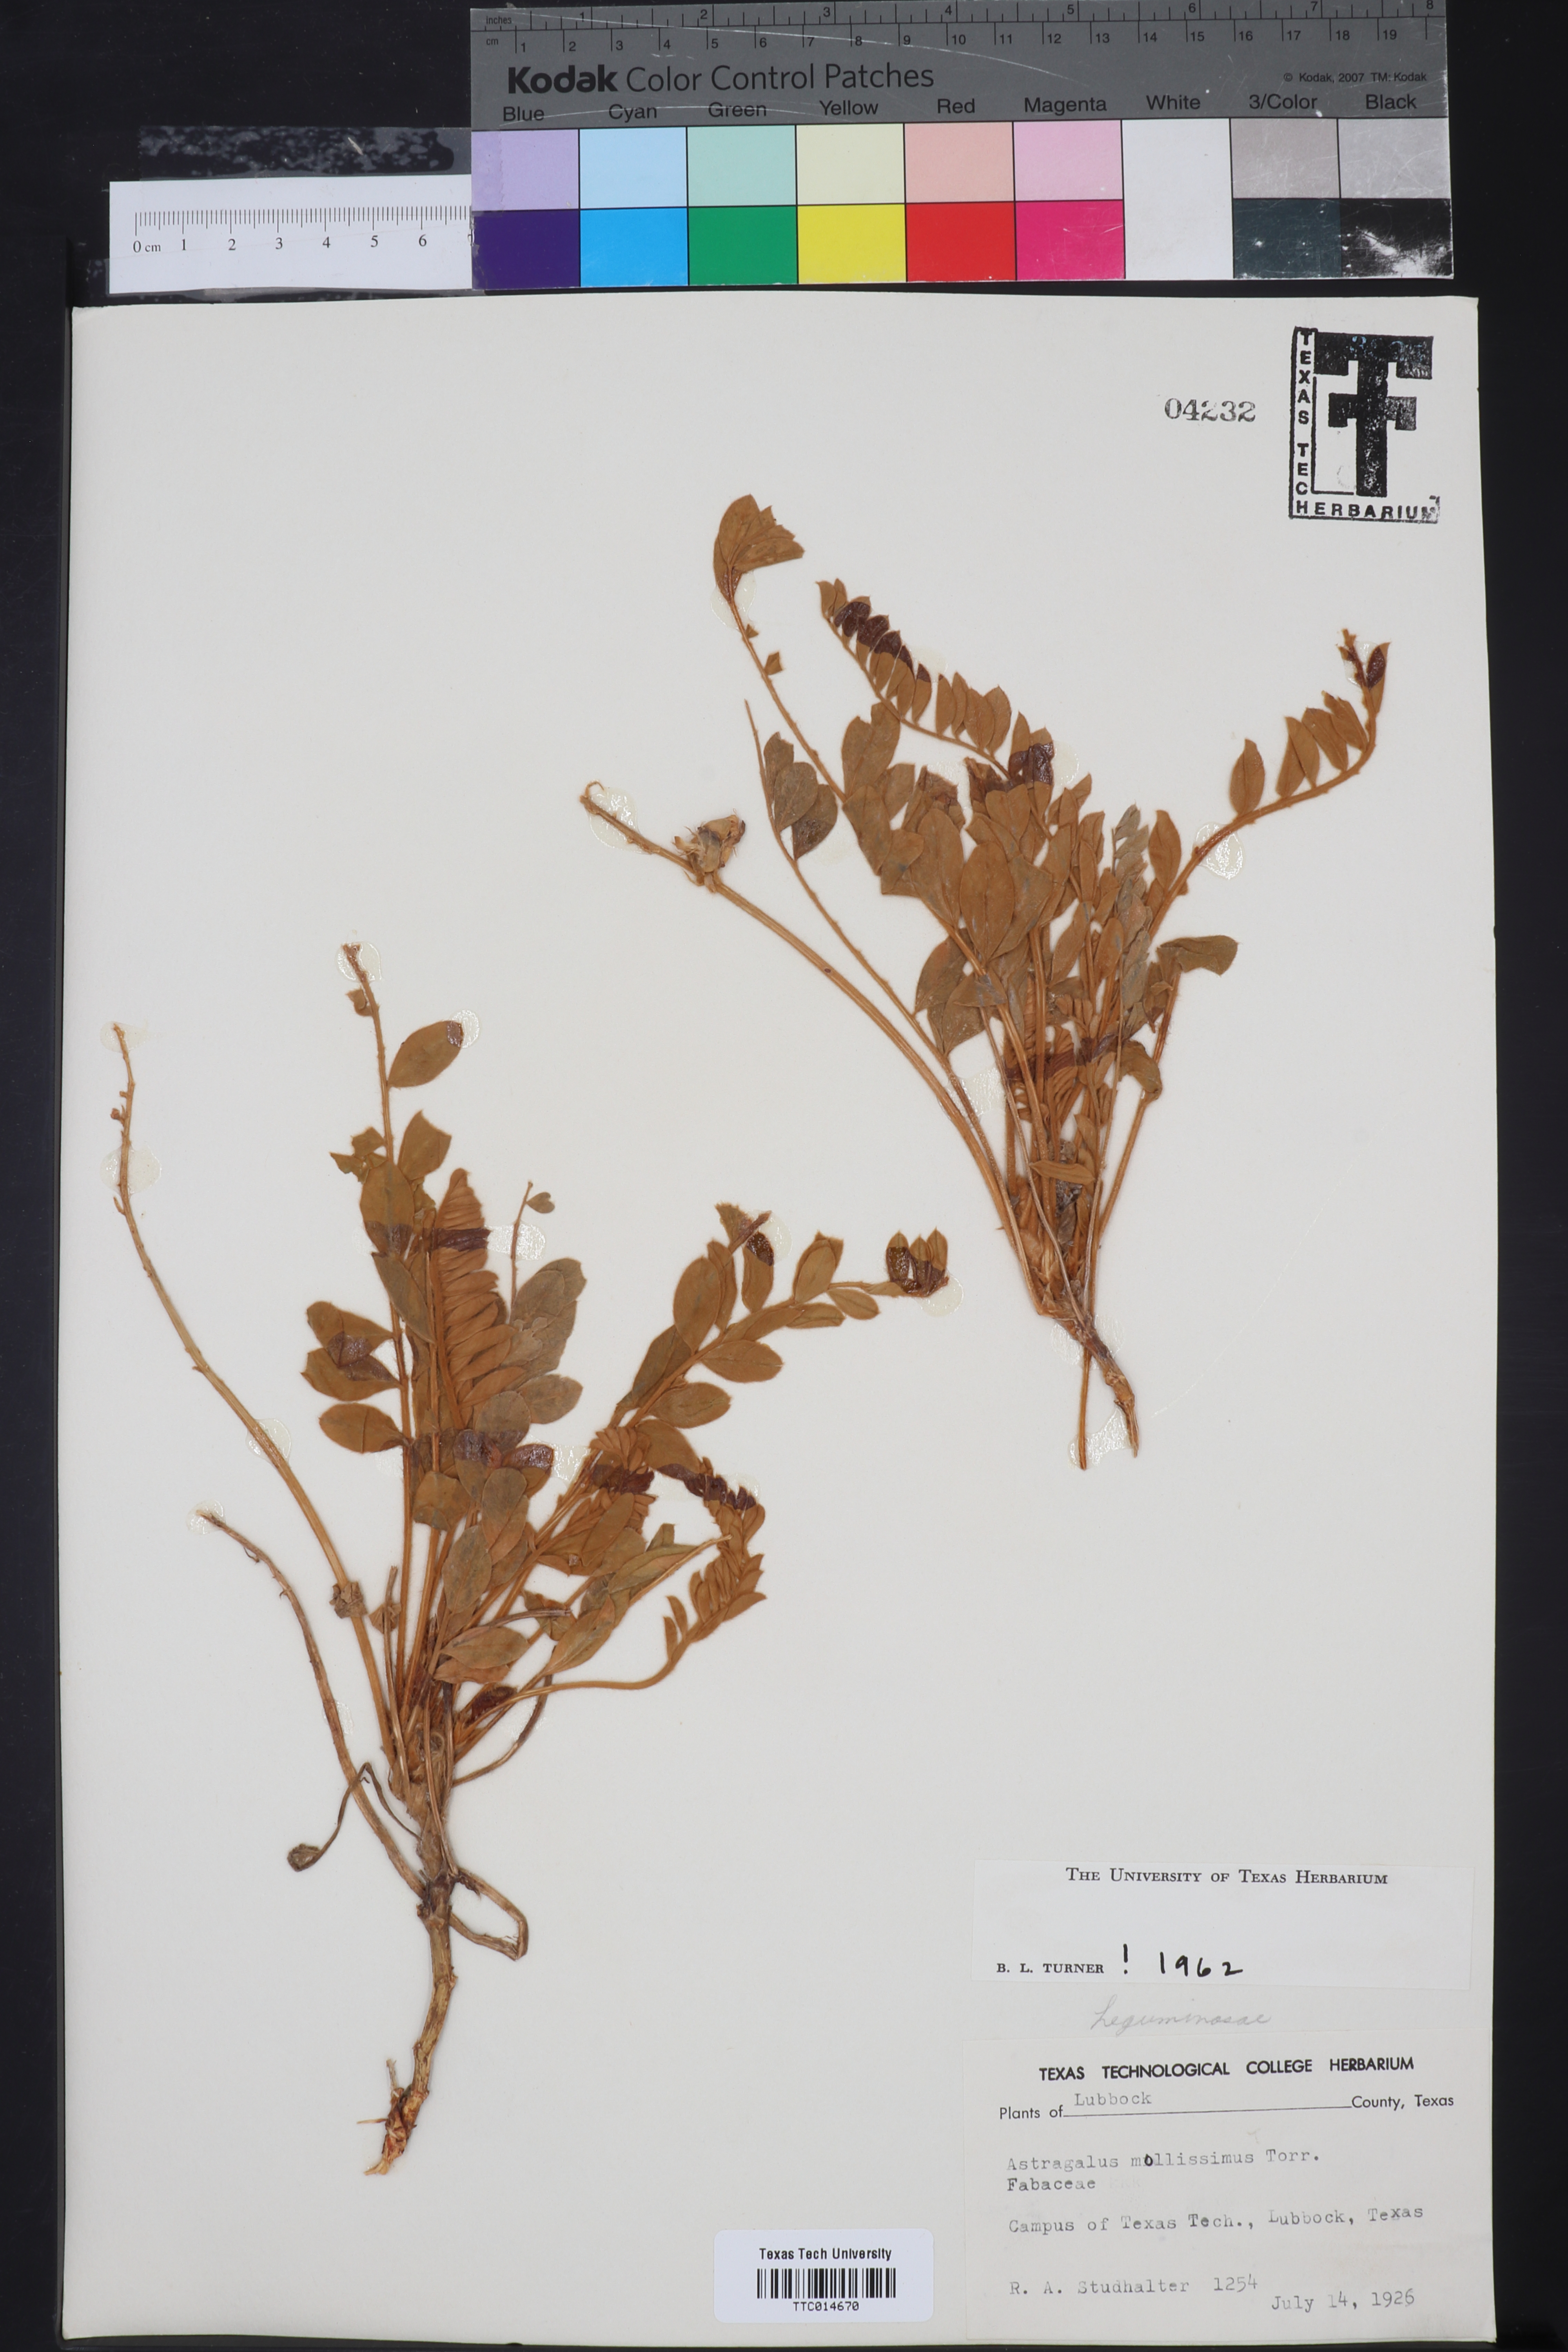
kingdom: Plantae
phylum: Tracheophyta
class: Magnoliopsida
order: Fabales
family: Fabaceae
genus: Astragalus
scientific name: Astragalus mollissimus
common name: Woolly locoweed
